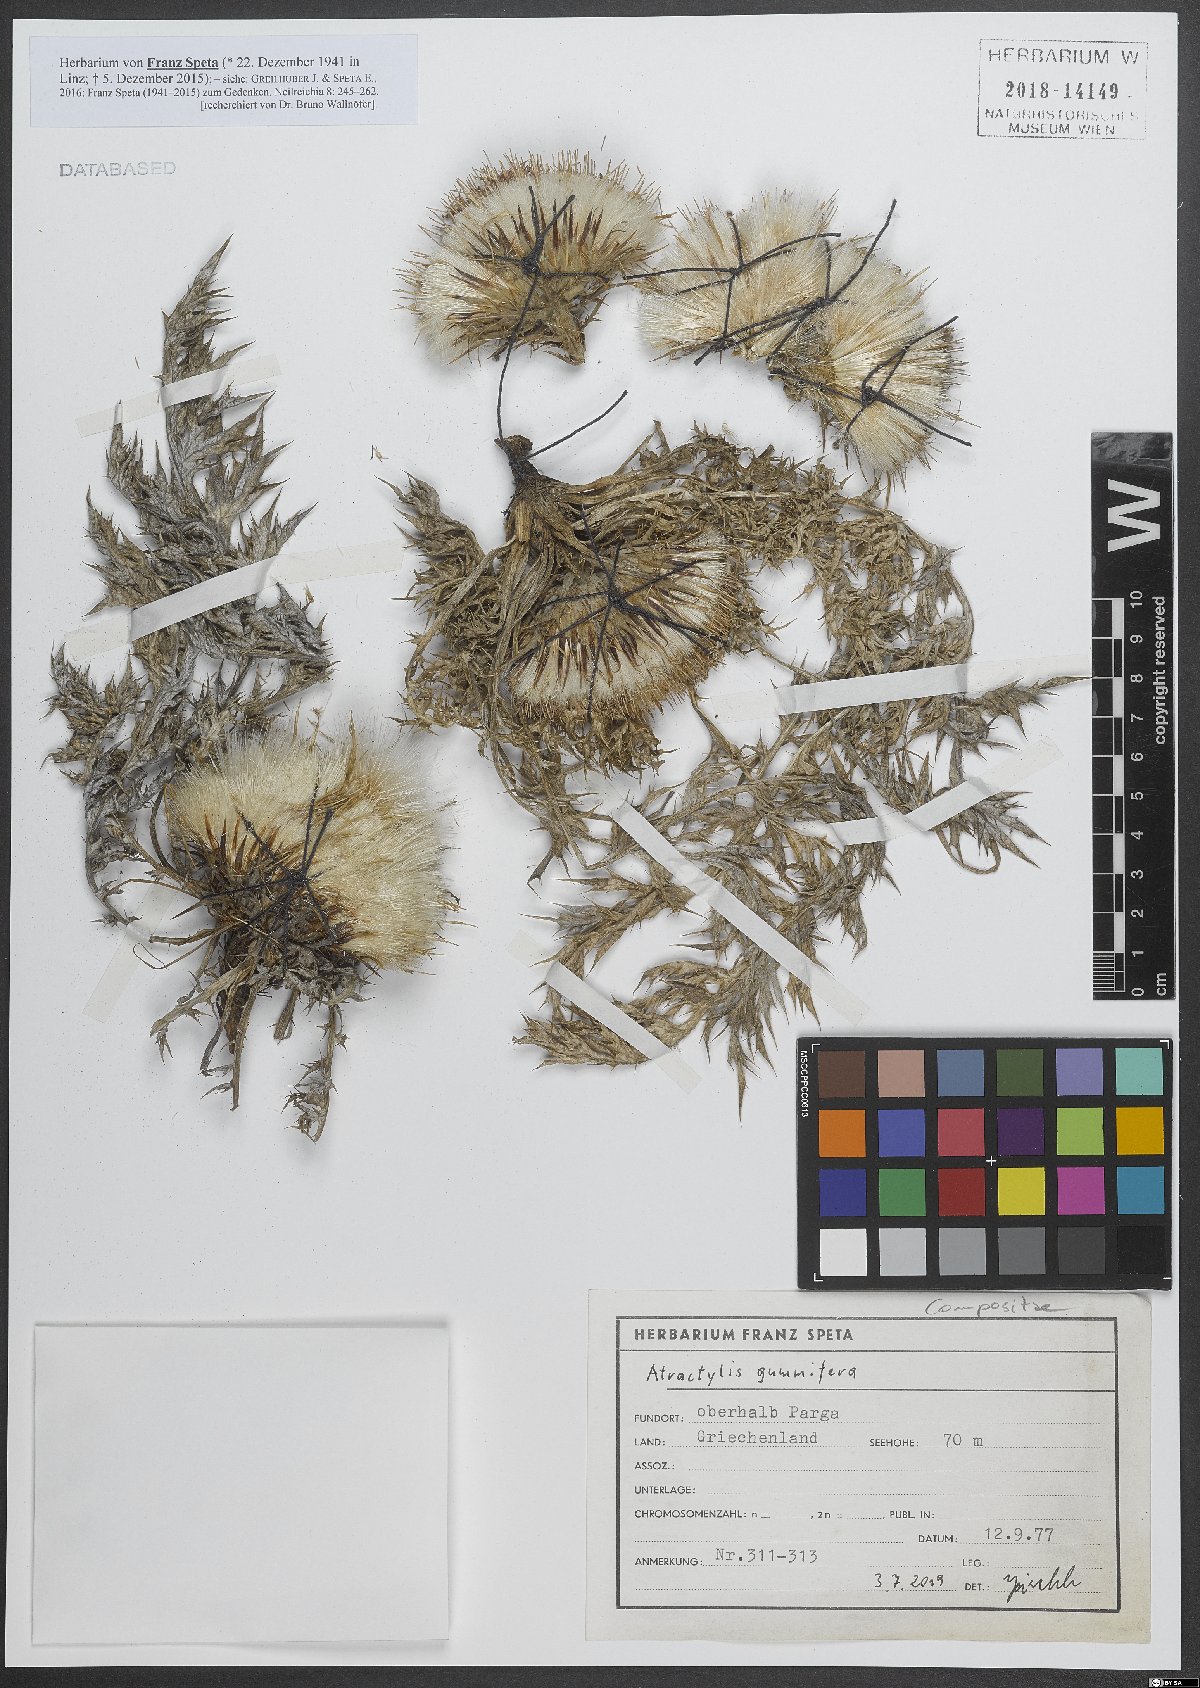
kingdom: Plantae
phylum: Tracheophyta
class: Magnoliopsida
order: Asterales
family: Asteraceae
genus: Chamaeleon
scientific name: Chamaeleon gummifer
